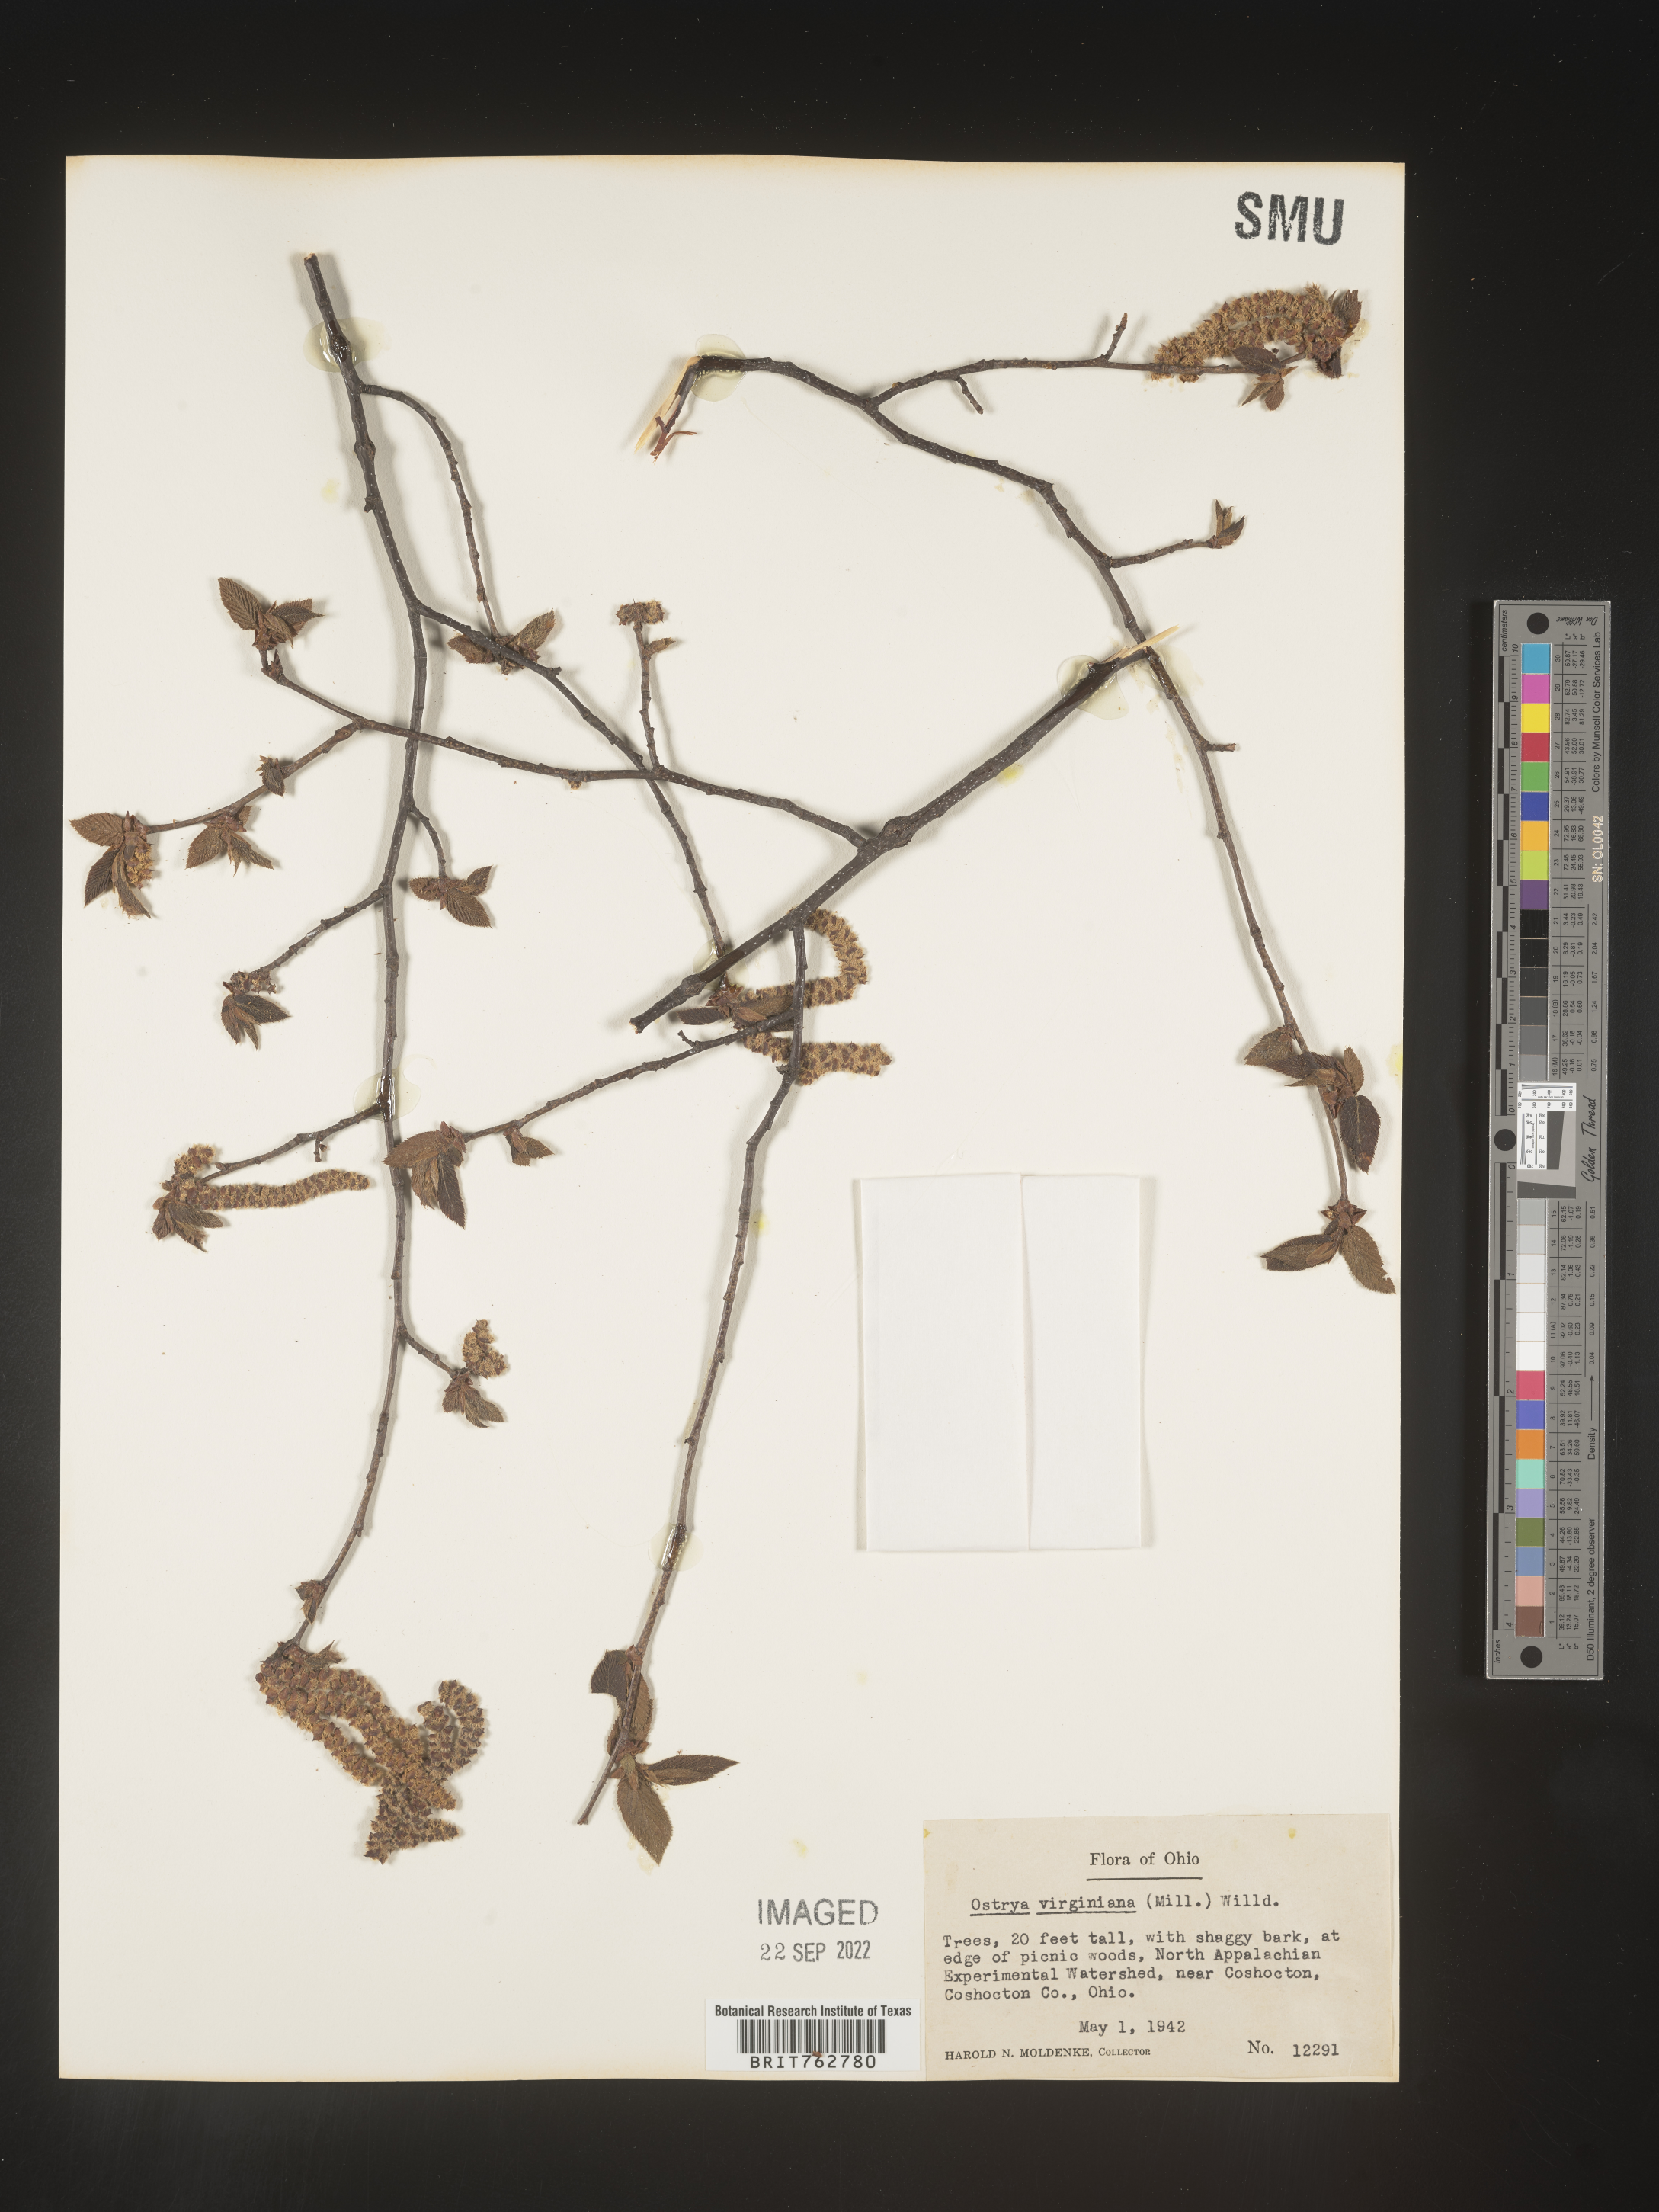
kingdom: Plantae
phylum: Tracheophyta
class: Magnoliopsida
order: Fagales
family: Betulaceae
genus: Ostrya
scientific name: Ostrya virginiana
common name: Ironwood
